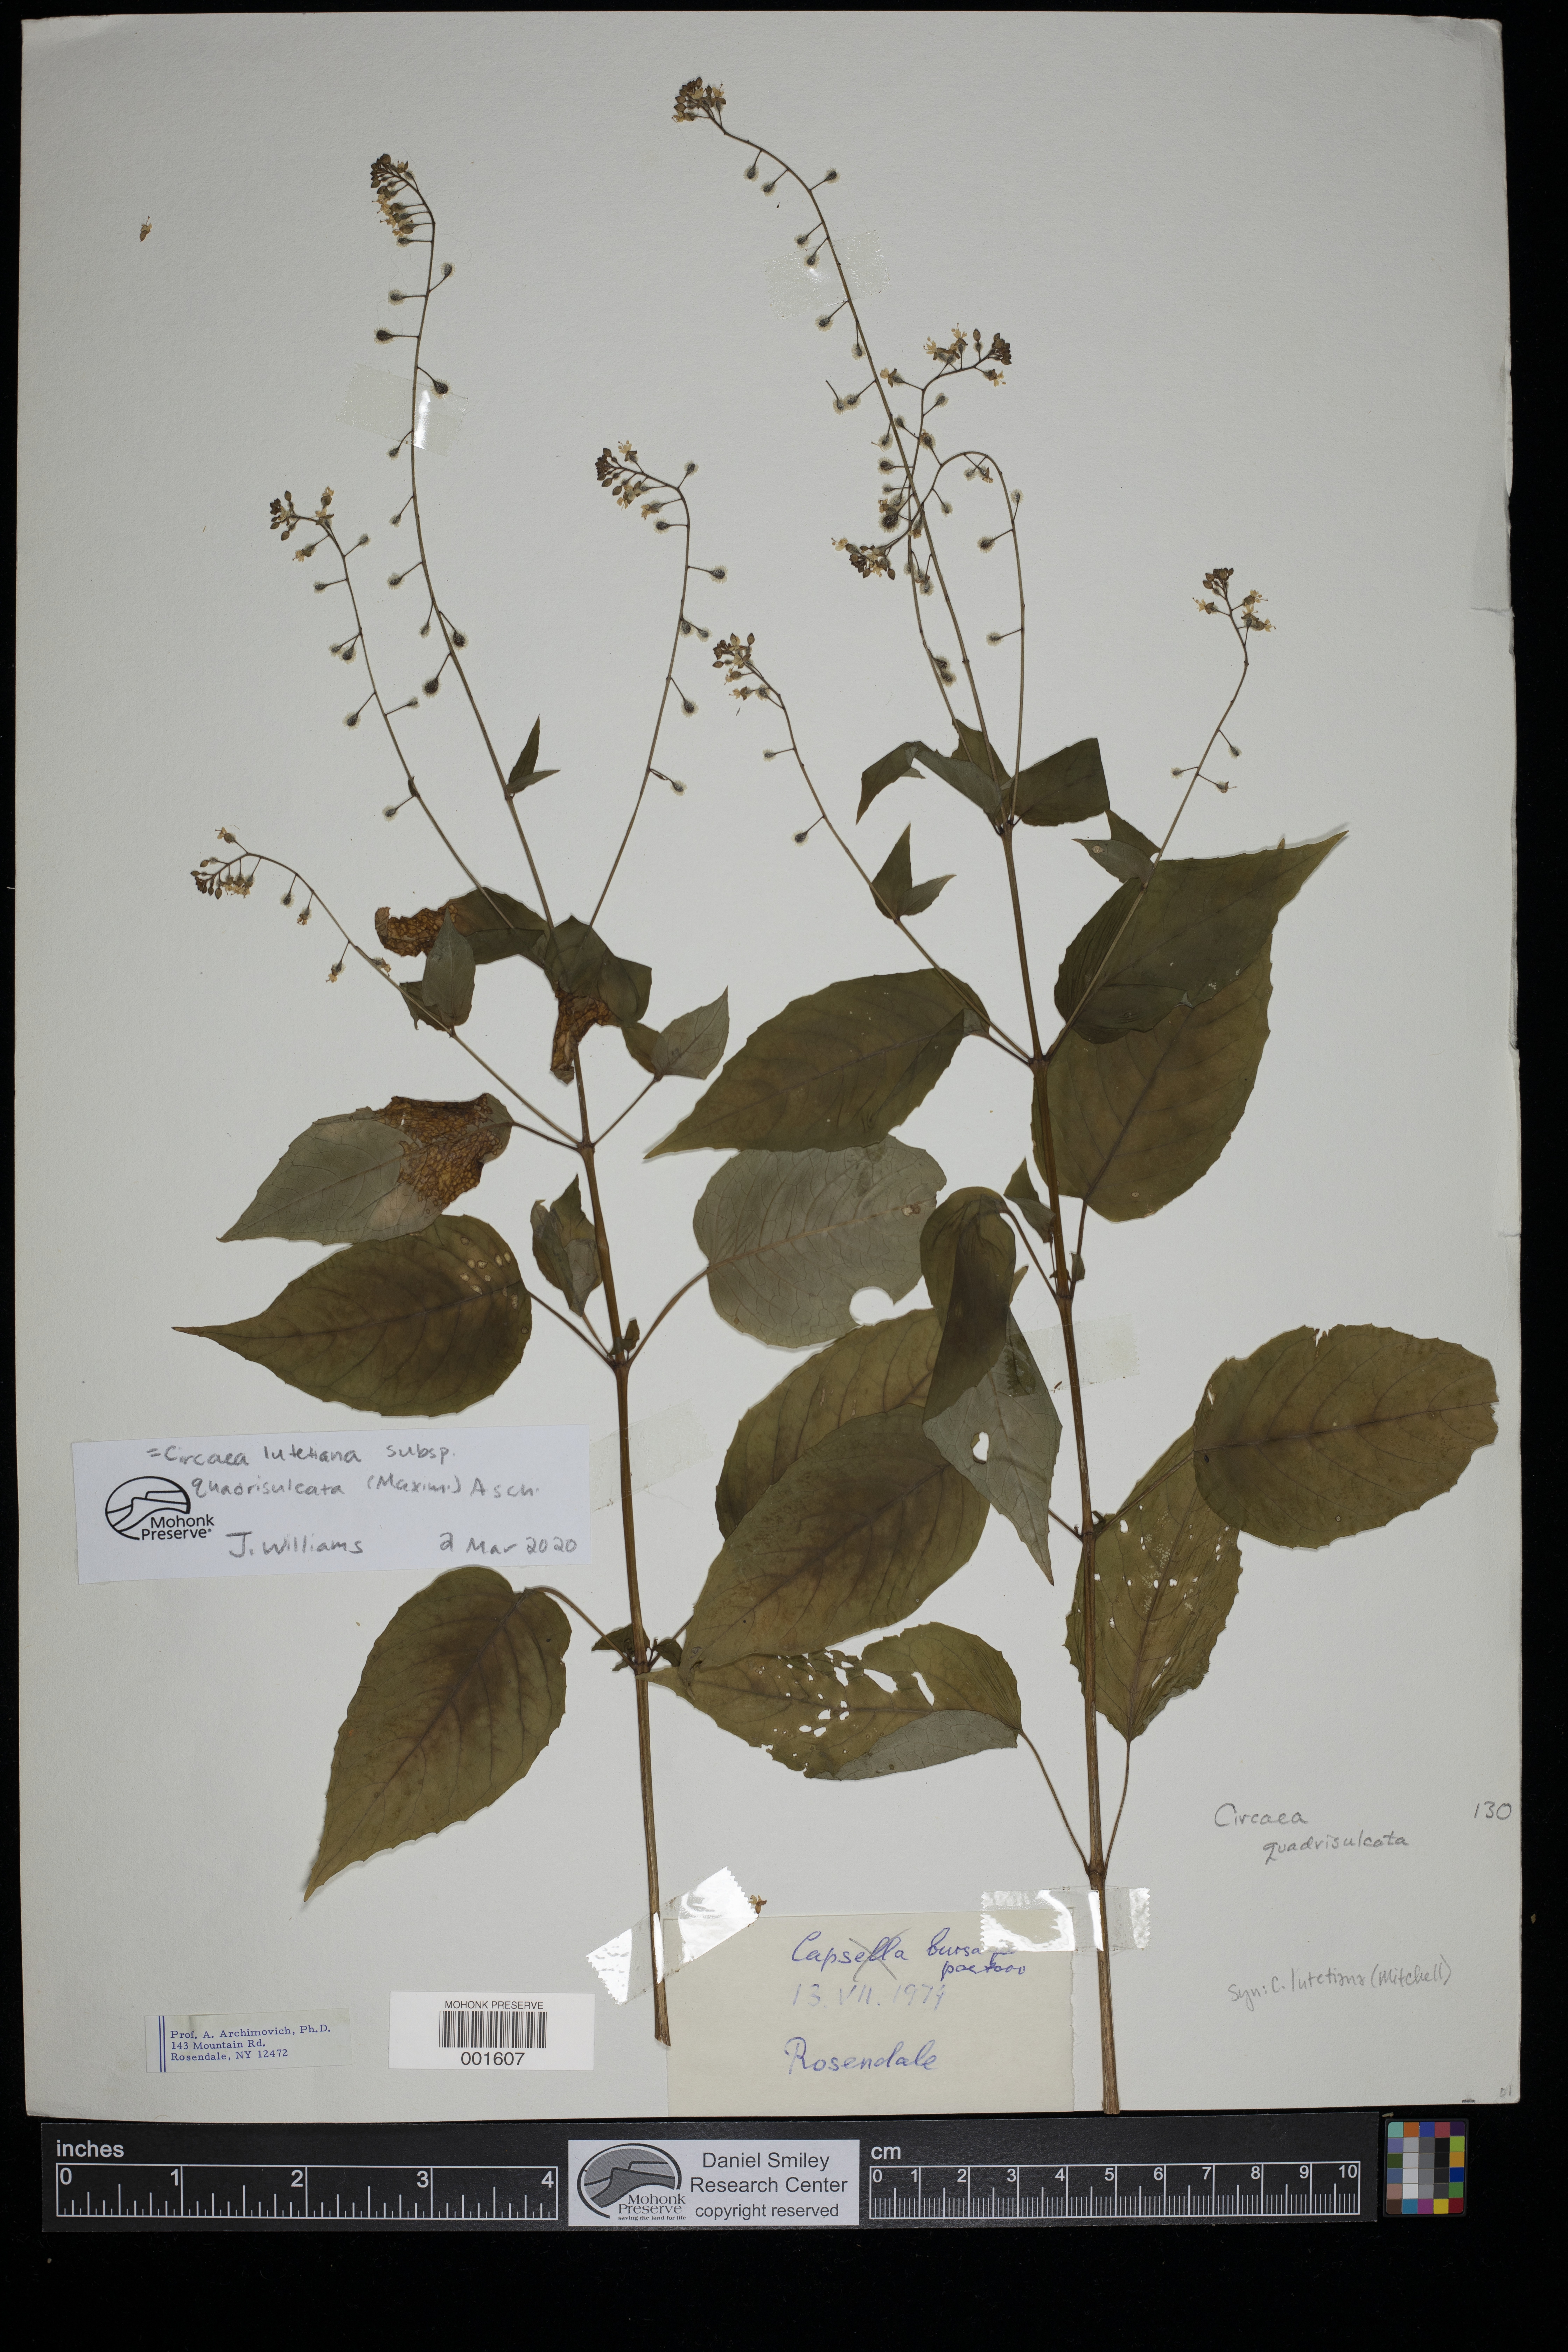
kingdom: Plantae
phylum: Tracheophyta
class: Magnoliopsida
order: Myrtales
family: Onagraceae
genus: Circaea
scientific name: Circaea canadensis
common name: Broad-leaved enchanter's nightshade
